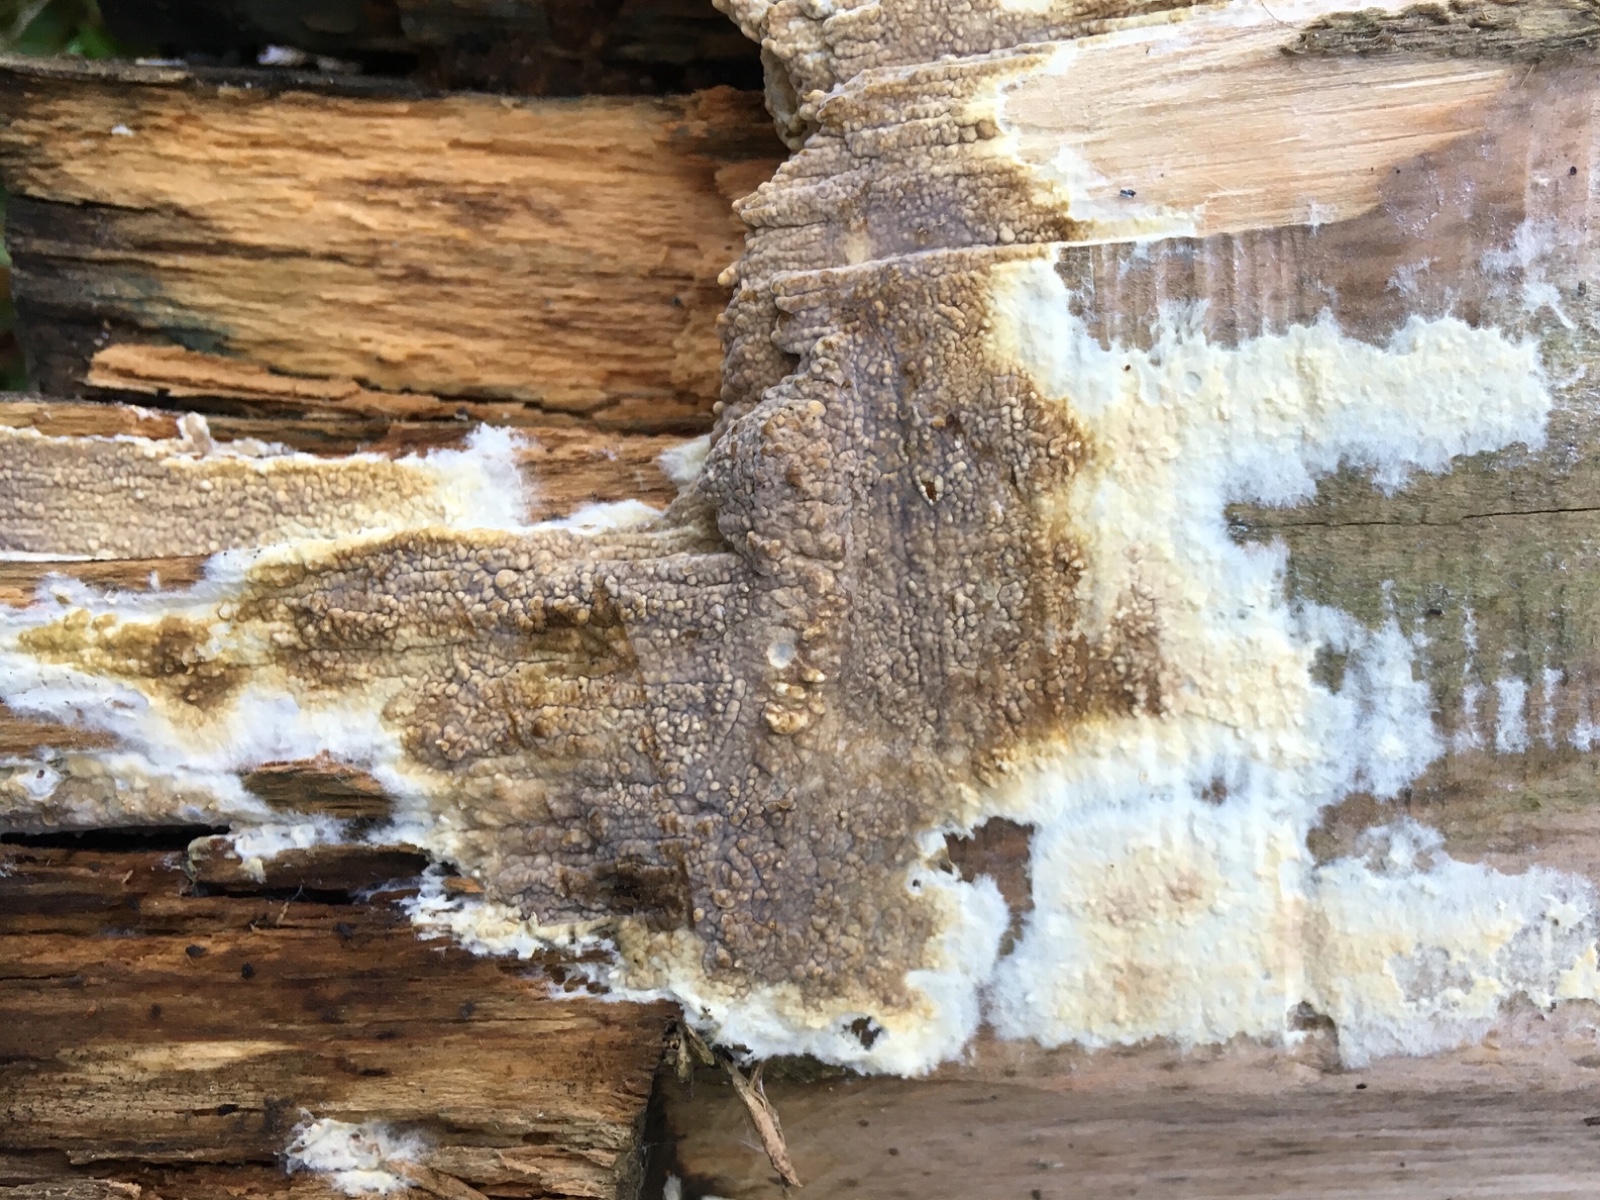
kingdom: Fungi
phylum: Basidiomycota
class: Agaricomycetes
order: Boletales
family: Coniophoraceae
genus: Coniophora
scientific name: Coniophora puteana
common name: gul tømmersvamp
